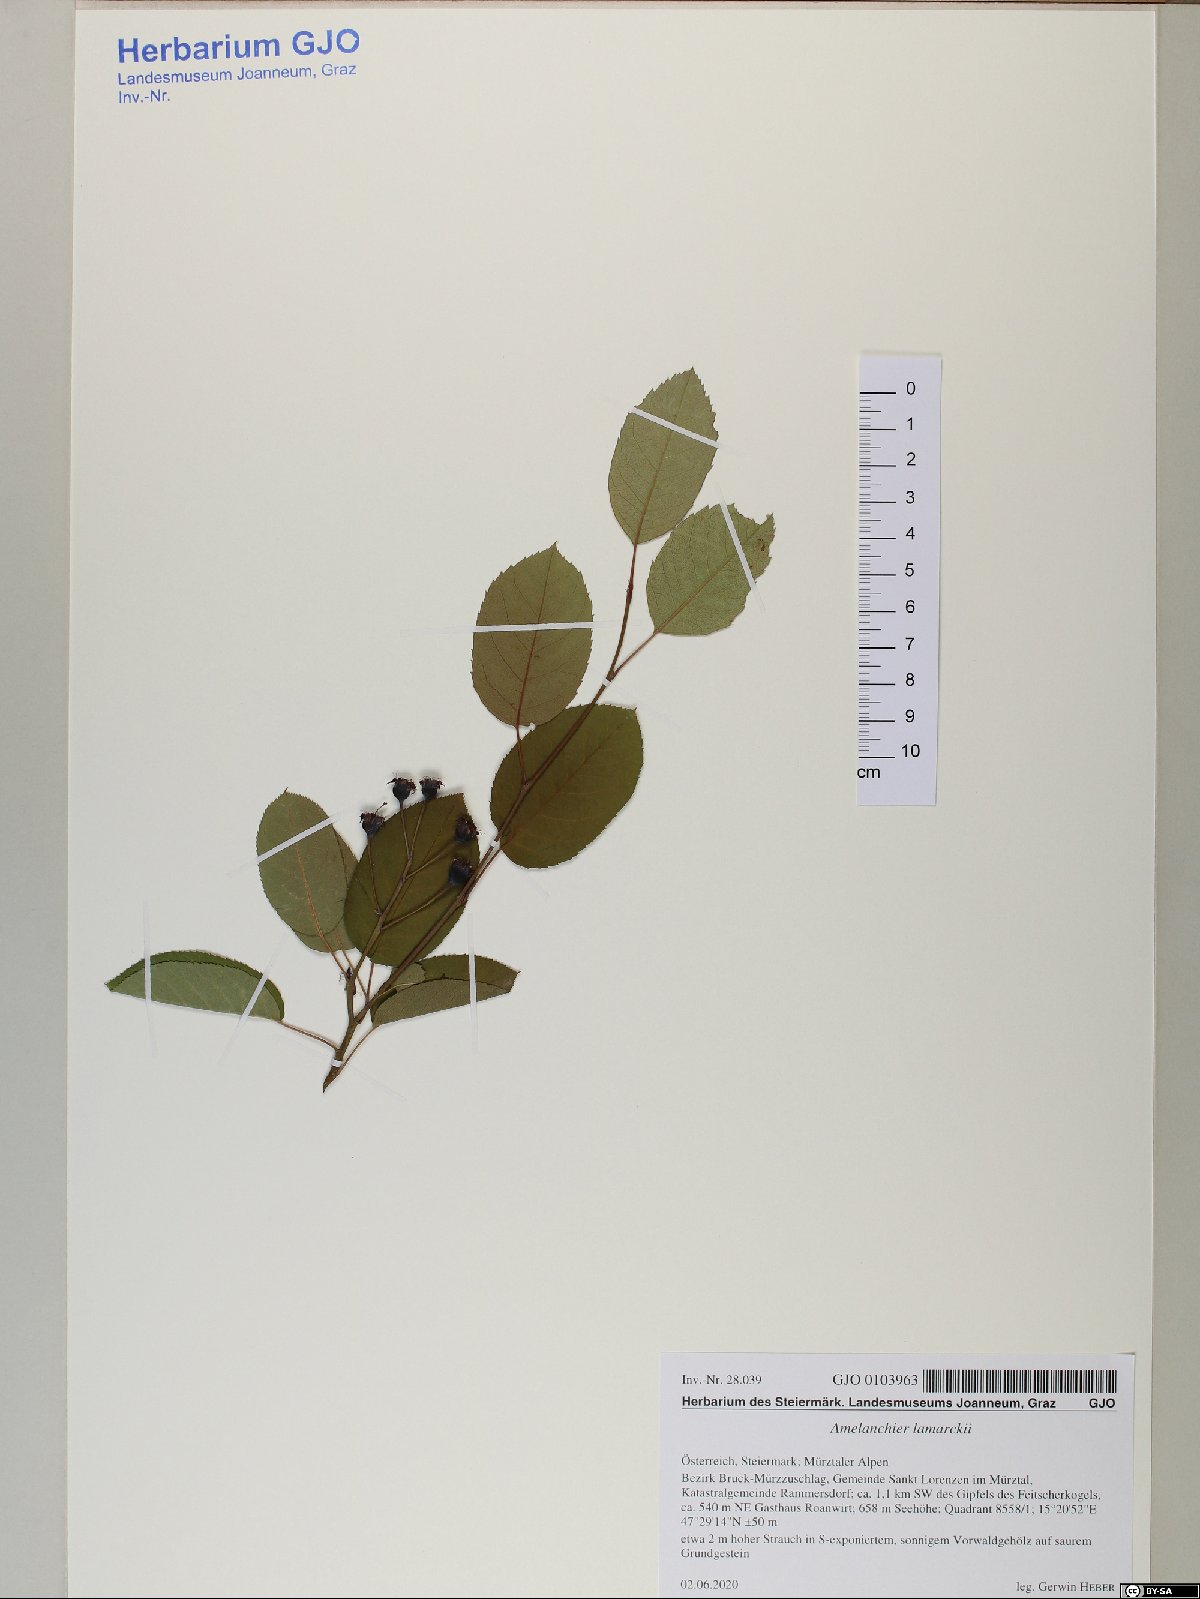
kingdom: Plantae
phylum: Tracheophyta
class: Magnoliopsida
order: Rosales
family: Rosaceae
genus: Amelanchier
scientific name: Amelanchier lamarckii
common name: Juneberry
